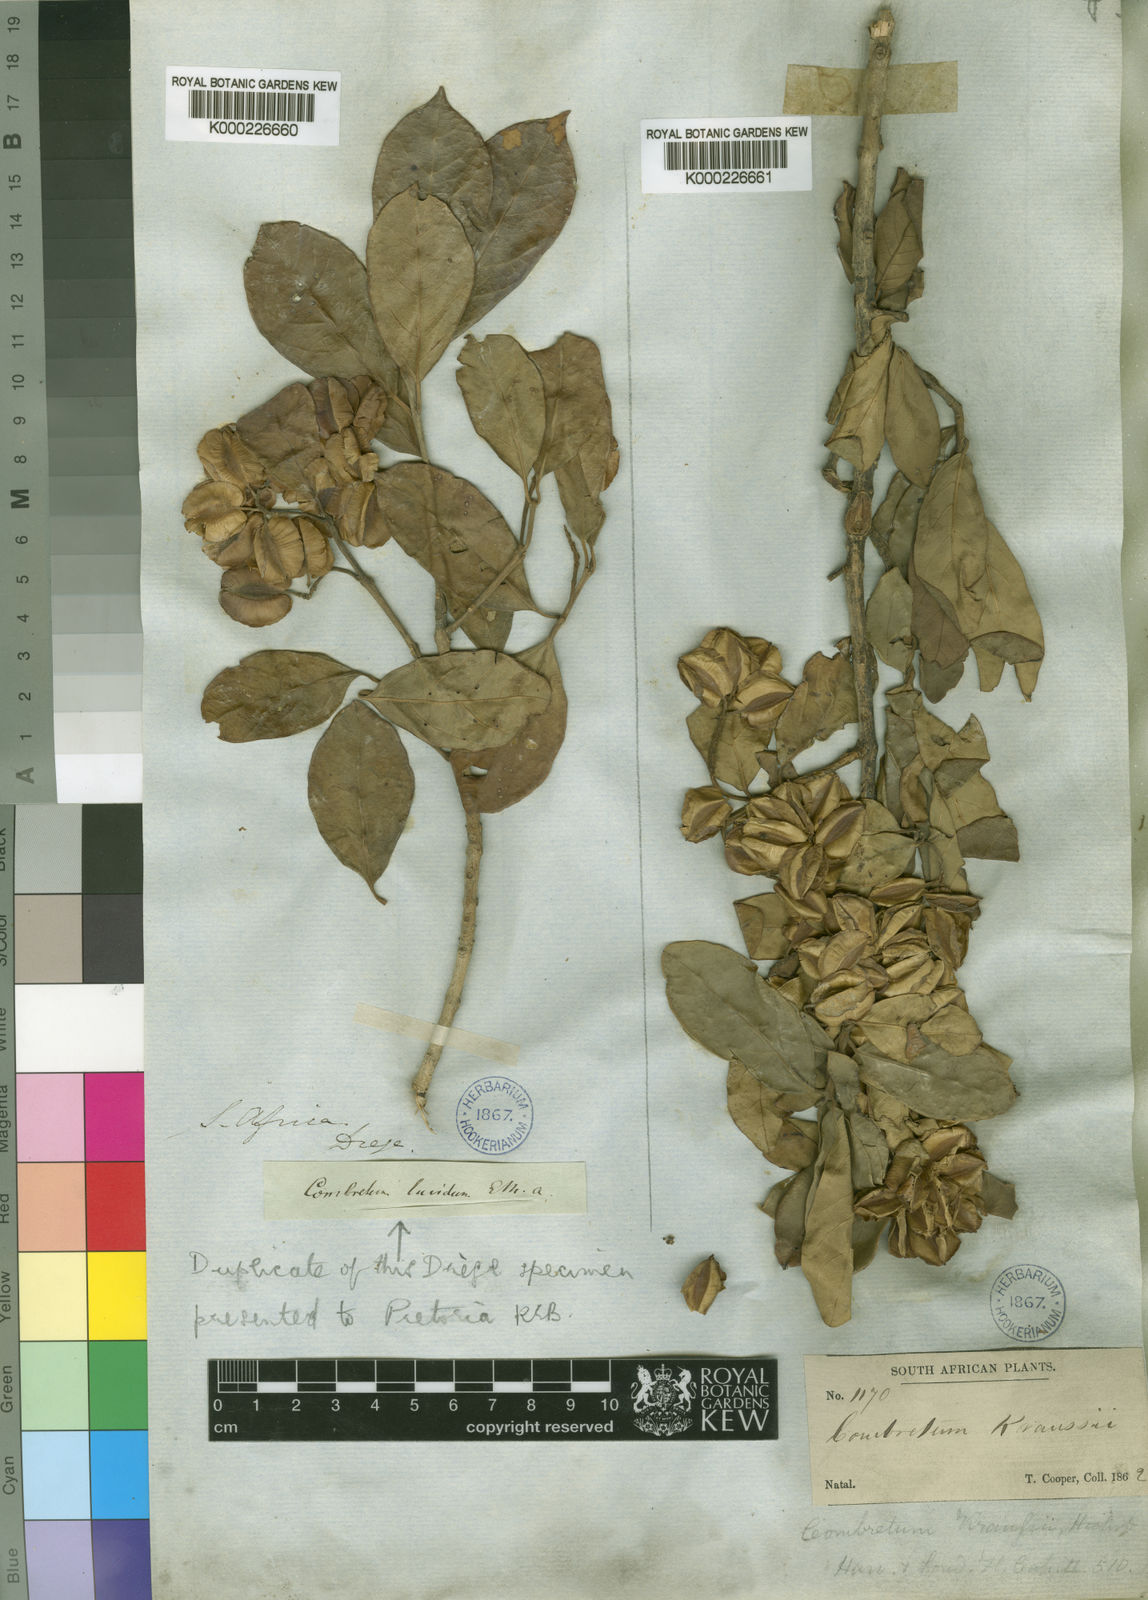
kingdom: Plantae
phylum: Tracheophyta
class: Magnoliopsida
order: Myrtales
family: Combretaceae
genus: Combretum
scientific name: Combretum kraussii
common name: Forest bushwillow
